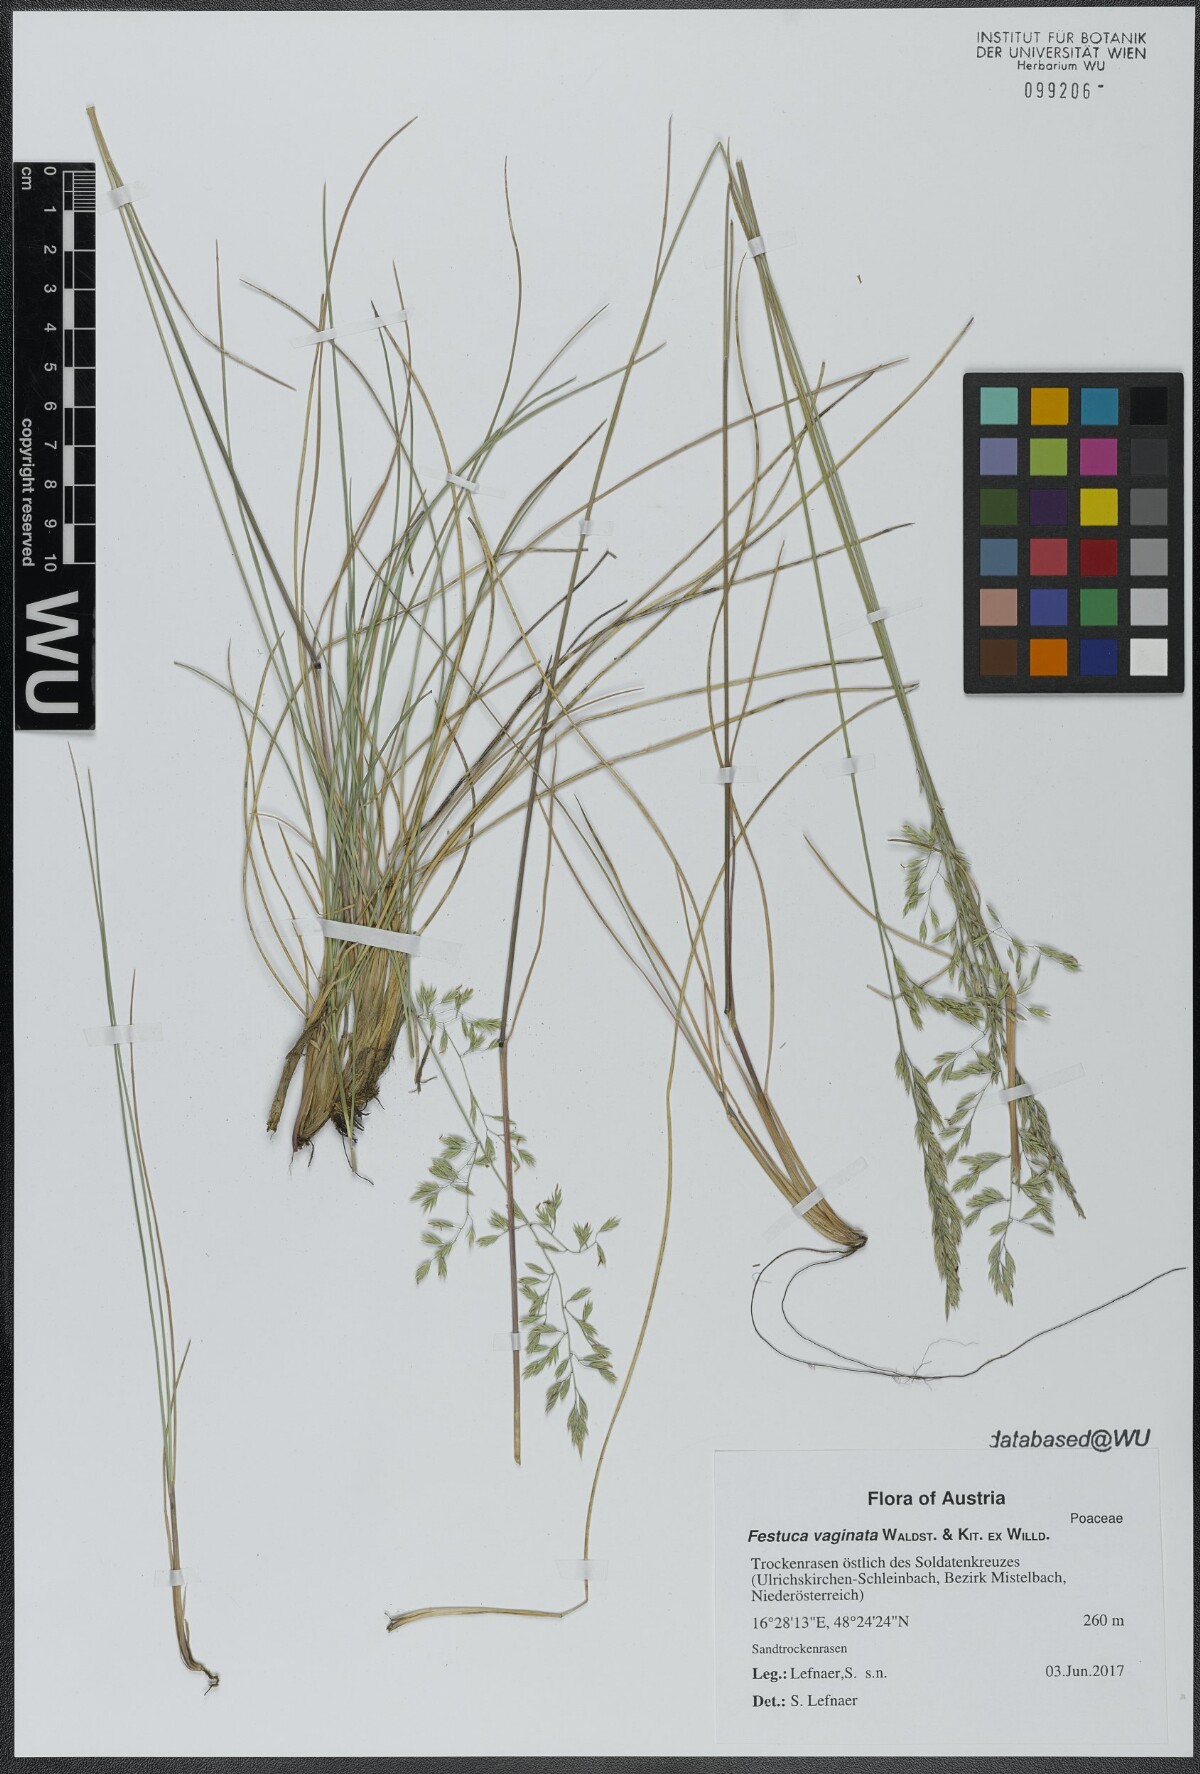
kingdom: Plantae
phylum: Tracheophyta
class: Liliopsida
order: Poales
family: Poaceae
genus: Festuca
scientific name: Festuca vaginata
